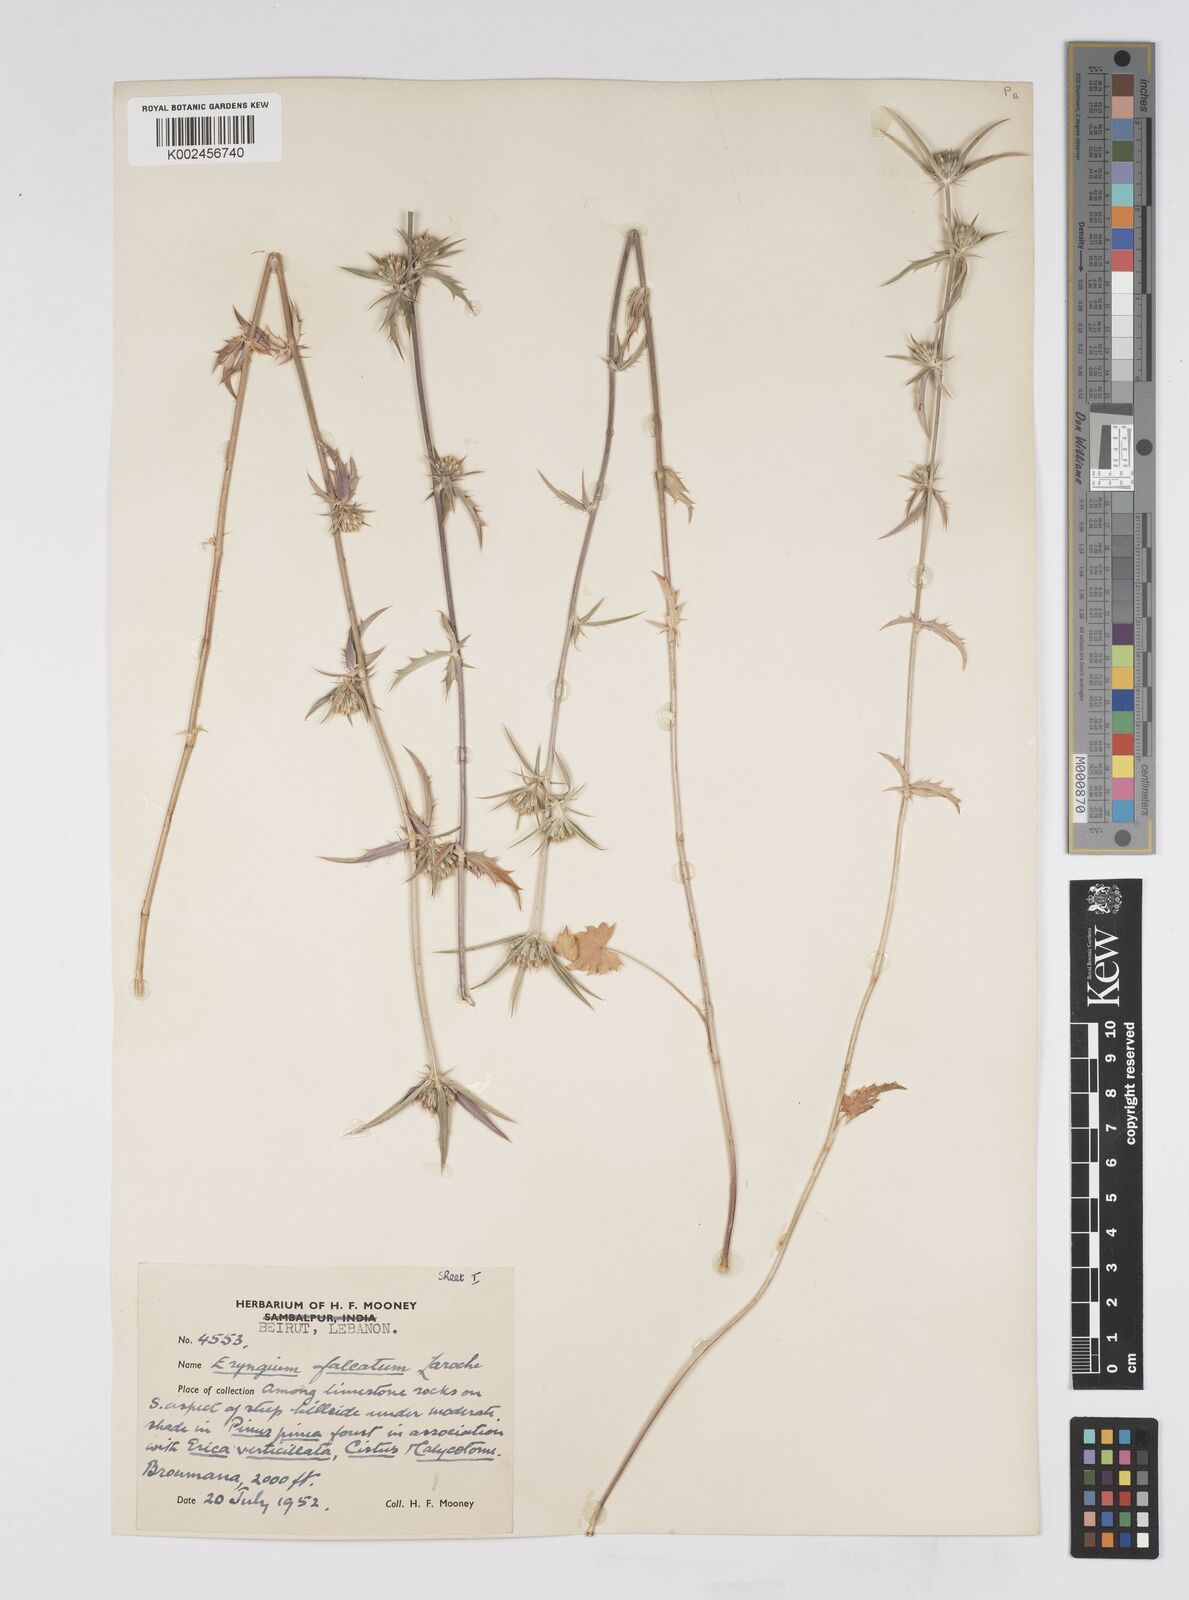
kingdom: Plantae
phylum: Tracheophyta
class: Magnoliopsida
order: Apiales
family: Apiaceae
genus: Eryngium
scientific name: Eryngium falcatum
